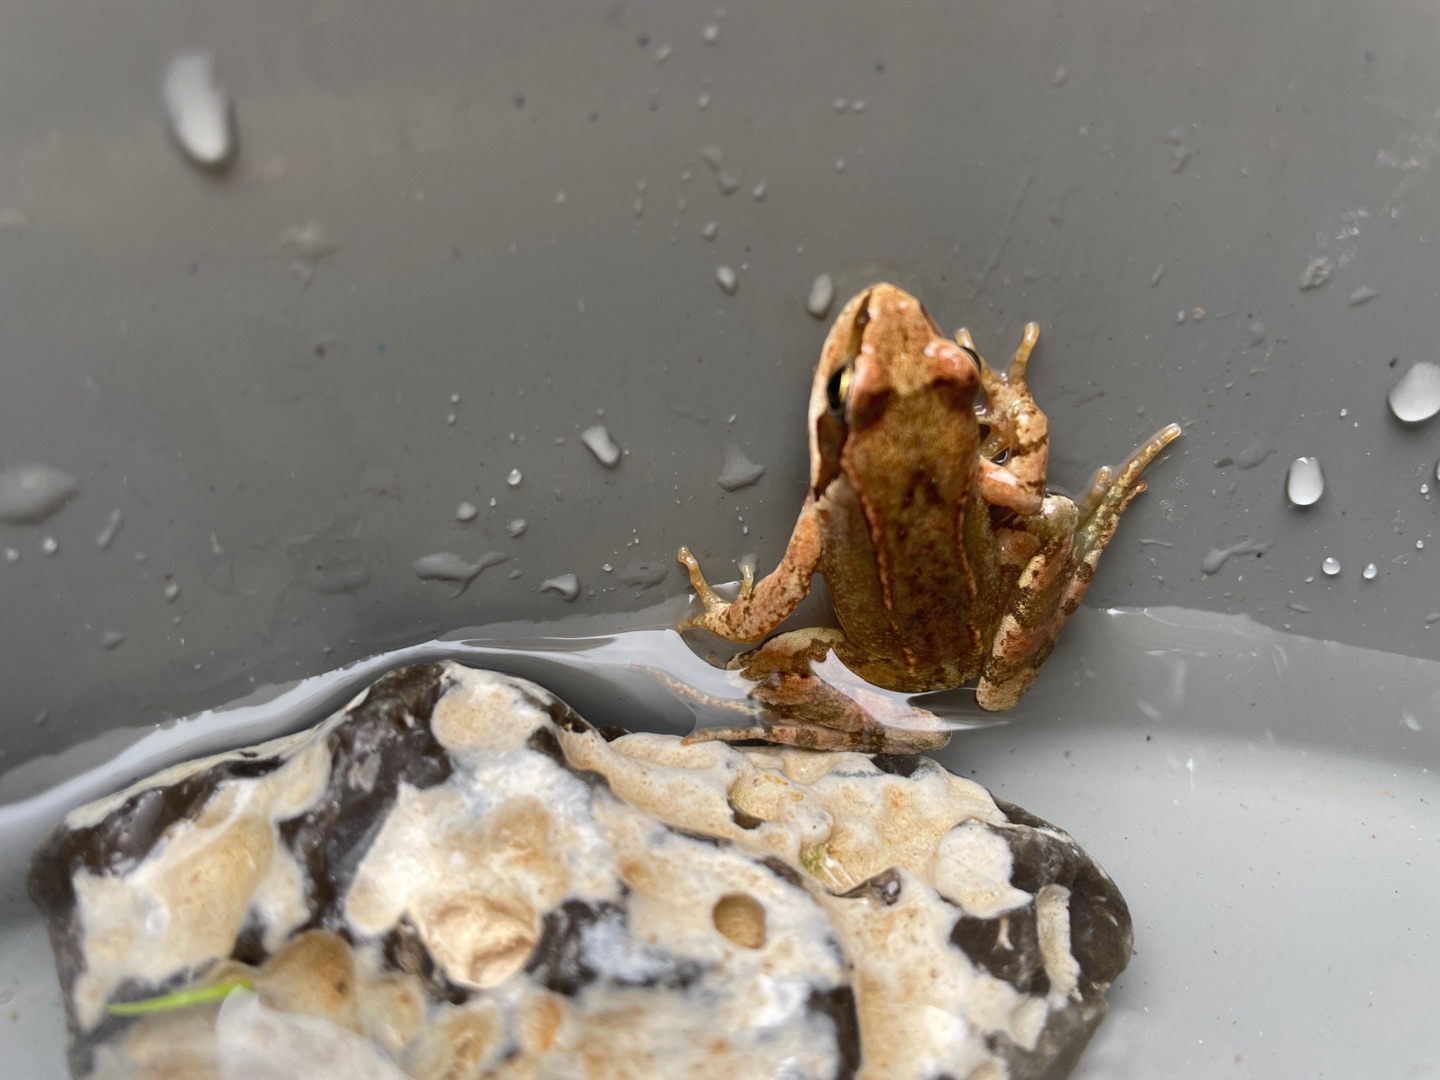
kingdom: Animalia
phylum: Chordata
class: Amphibia
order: Anura
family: Ranidae
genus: Rana
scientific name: Rana temporaria
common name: Butsnudet frø
